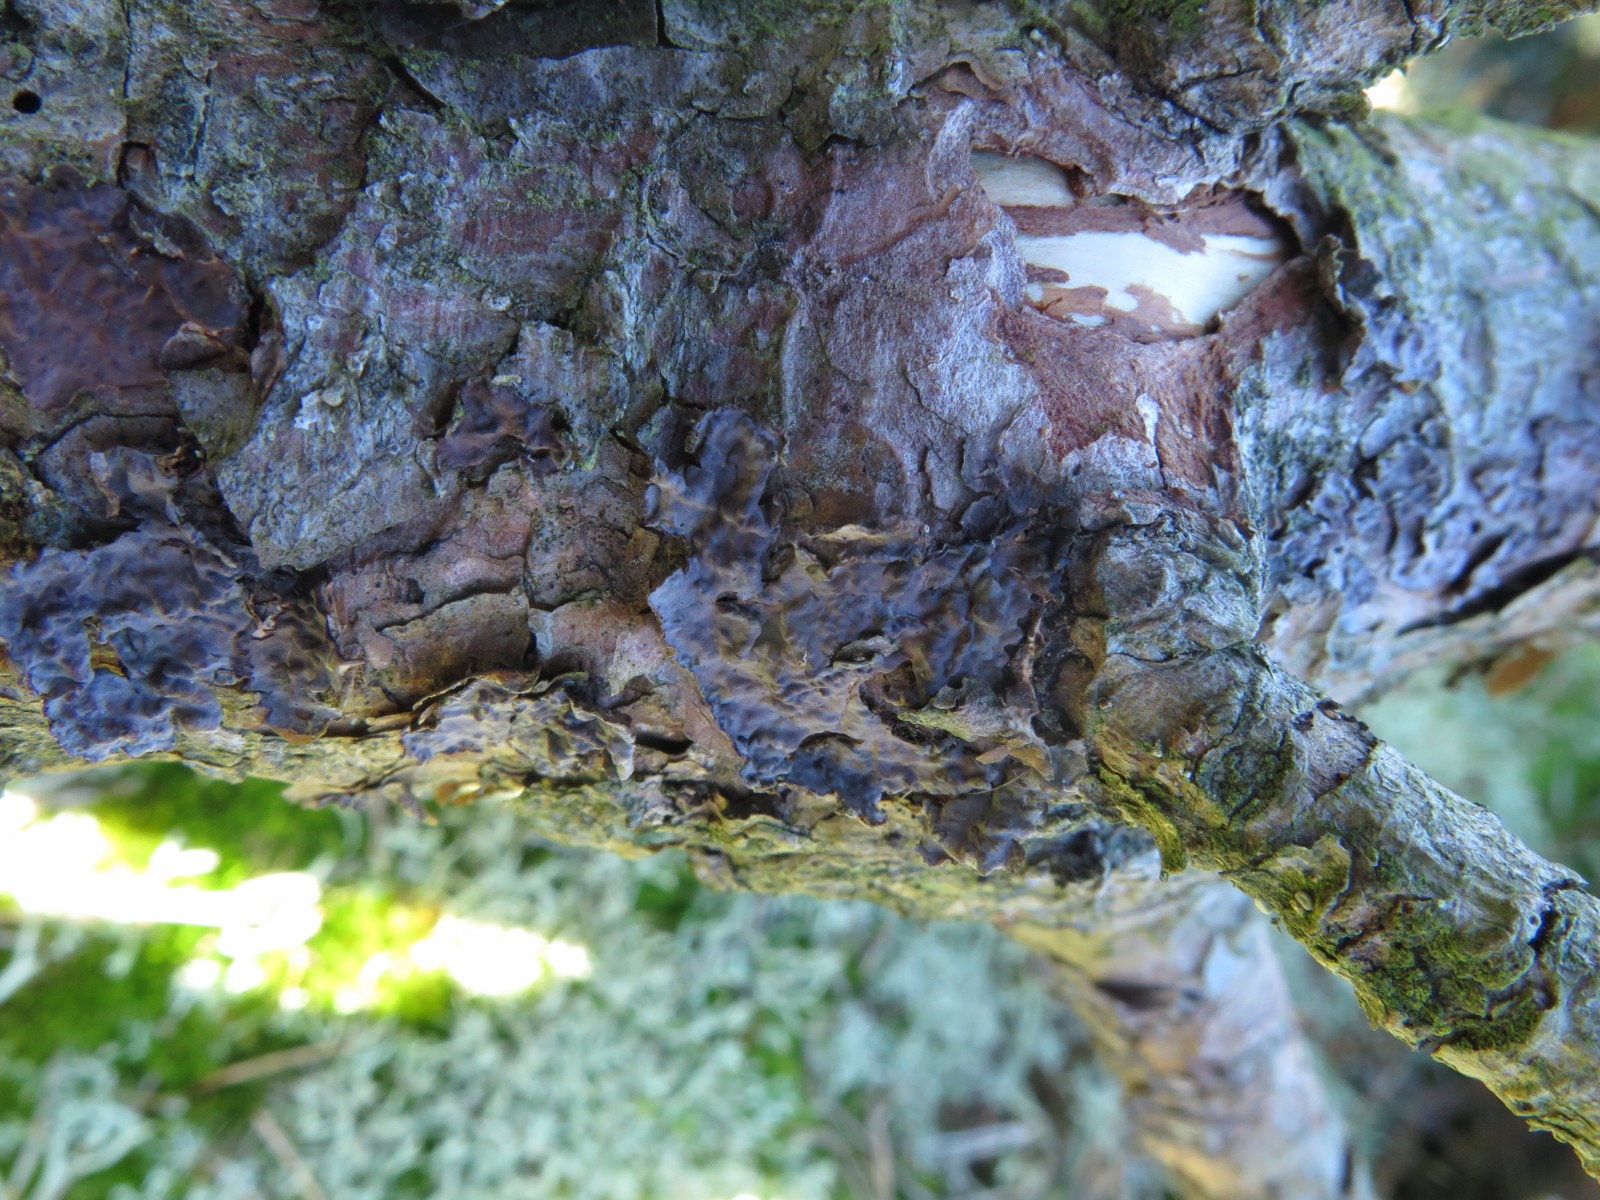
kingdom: Fungi
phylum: Basidiomycota
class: Agaricomycetes
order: Russulales
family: Peniophoraceae
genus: Peniophora
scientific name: Peniophora pini
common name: fyrre-voksskind
